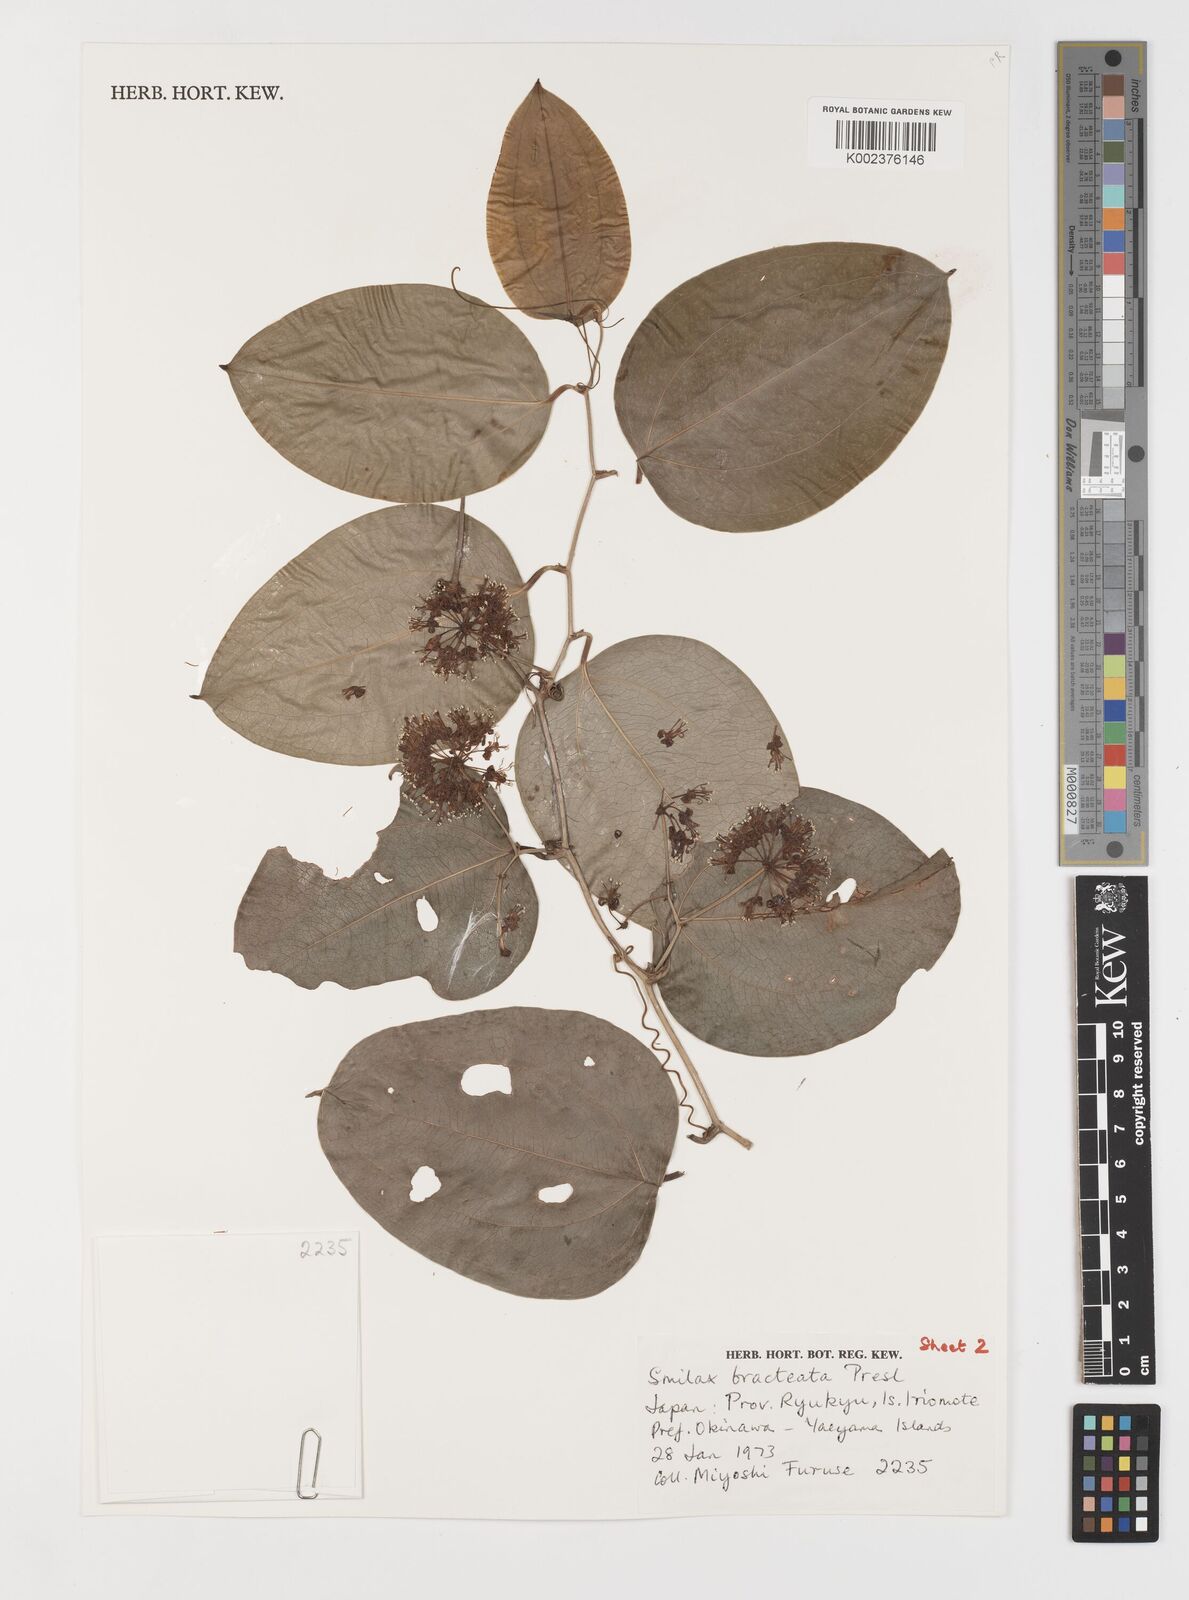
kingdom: Plantae
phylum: Tracheophyta
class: Liliopsida
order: Liliales
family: Smilacaceae
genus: Smilax
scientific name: Smilax bracteata
